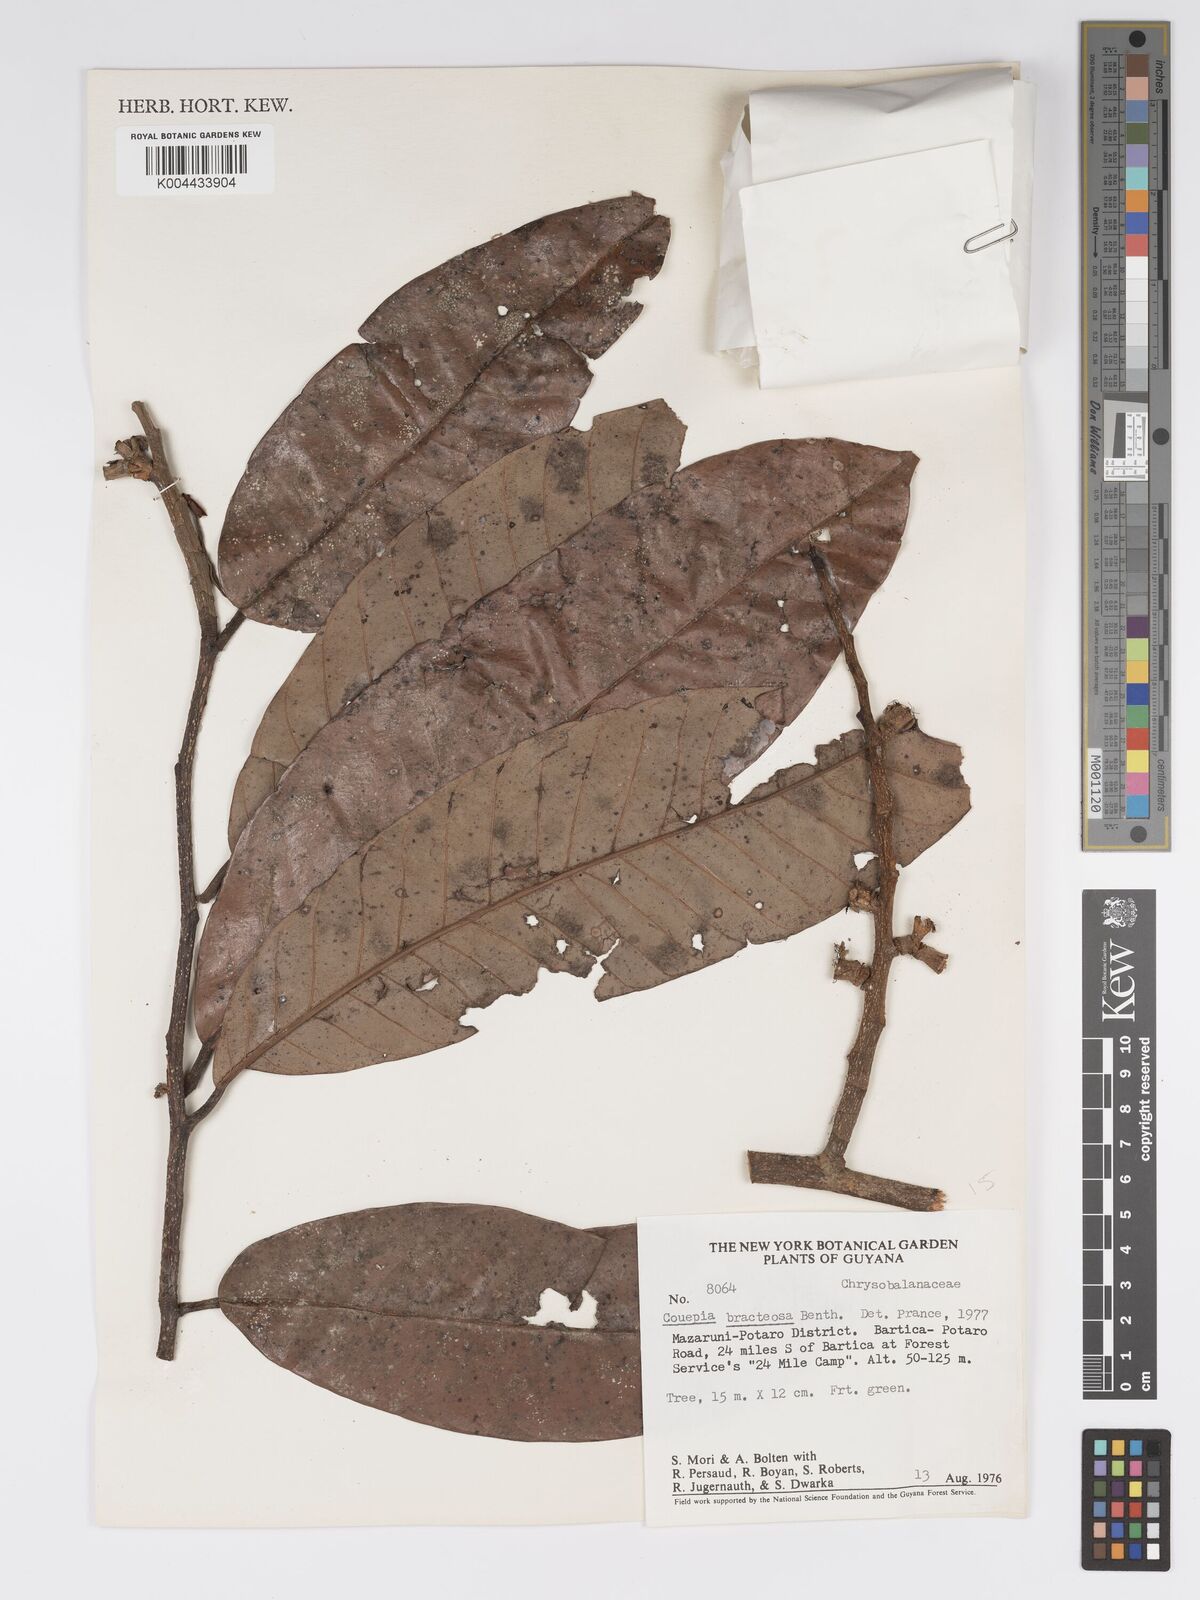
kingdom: Plantae
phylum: Tracheophyta
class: Magnoliopsida
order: Malpighiales
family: Chrysobalanaceae
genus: Couepia
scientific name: Couepia bracteosa
